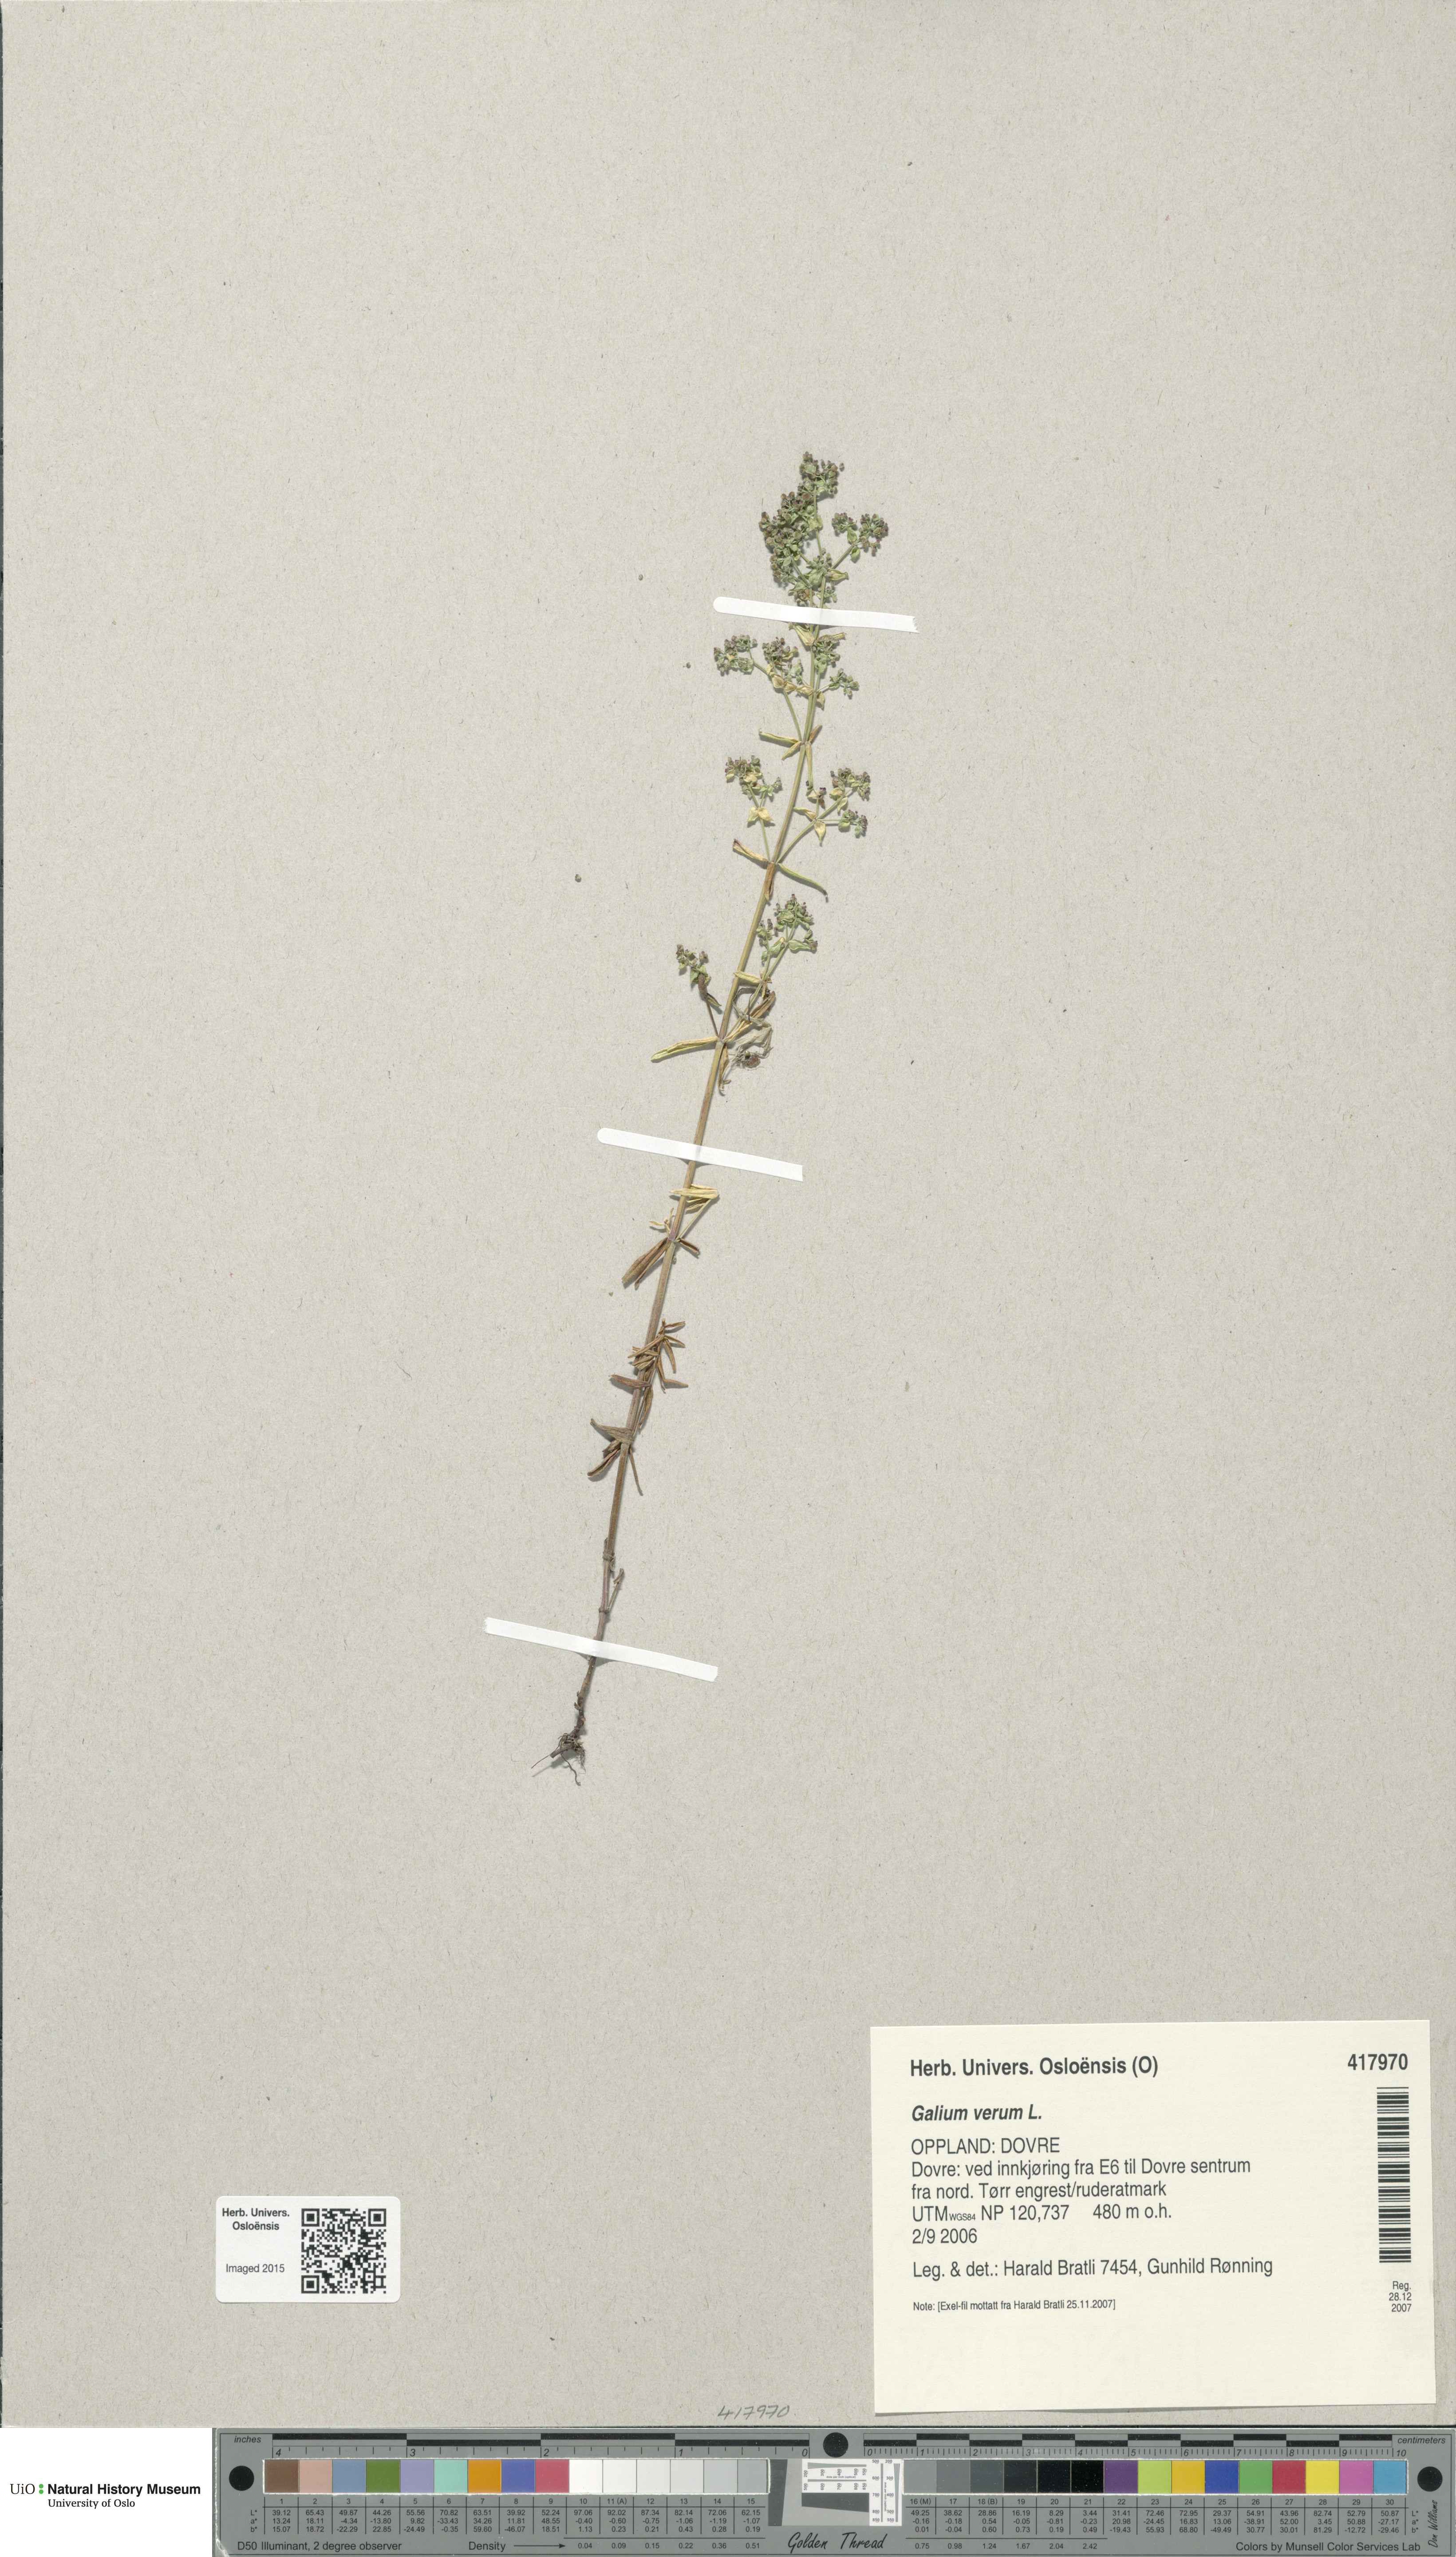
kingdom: Plantae
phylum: Tracheophyta
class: Magnoliopsida
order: Gentianales
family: Rubiaceae
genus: Galium
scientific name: Galium verum
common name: Lady's bedstraw
